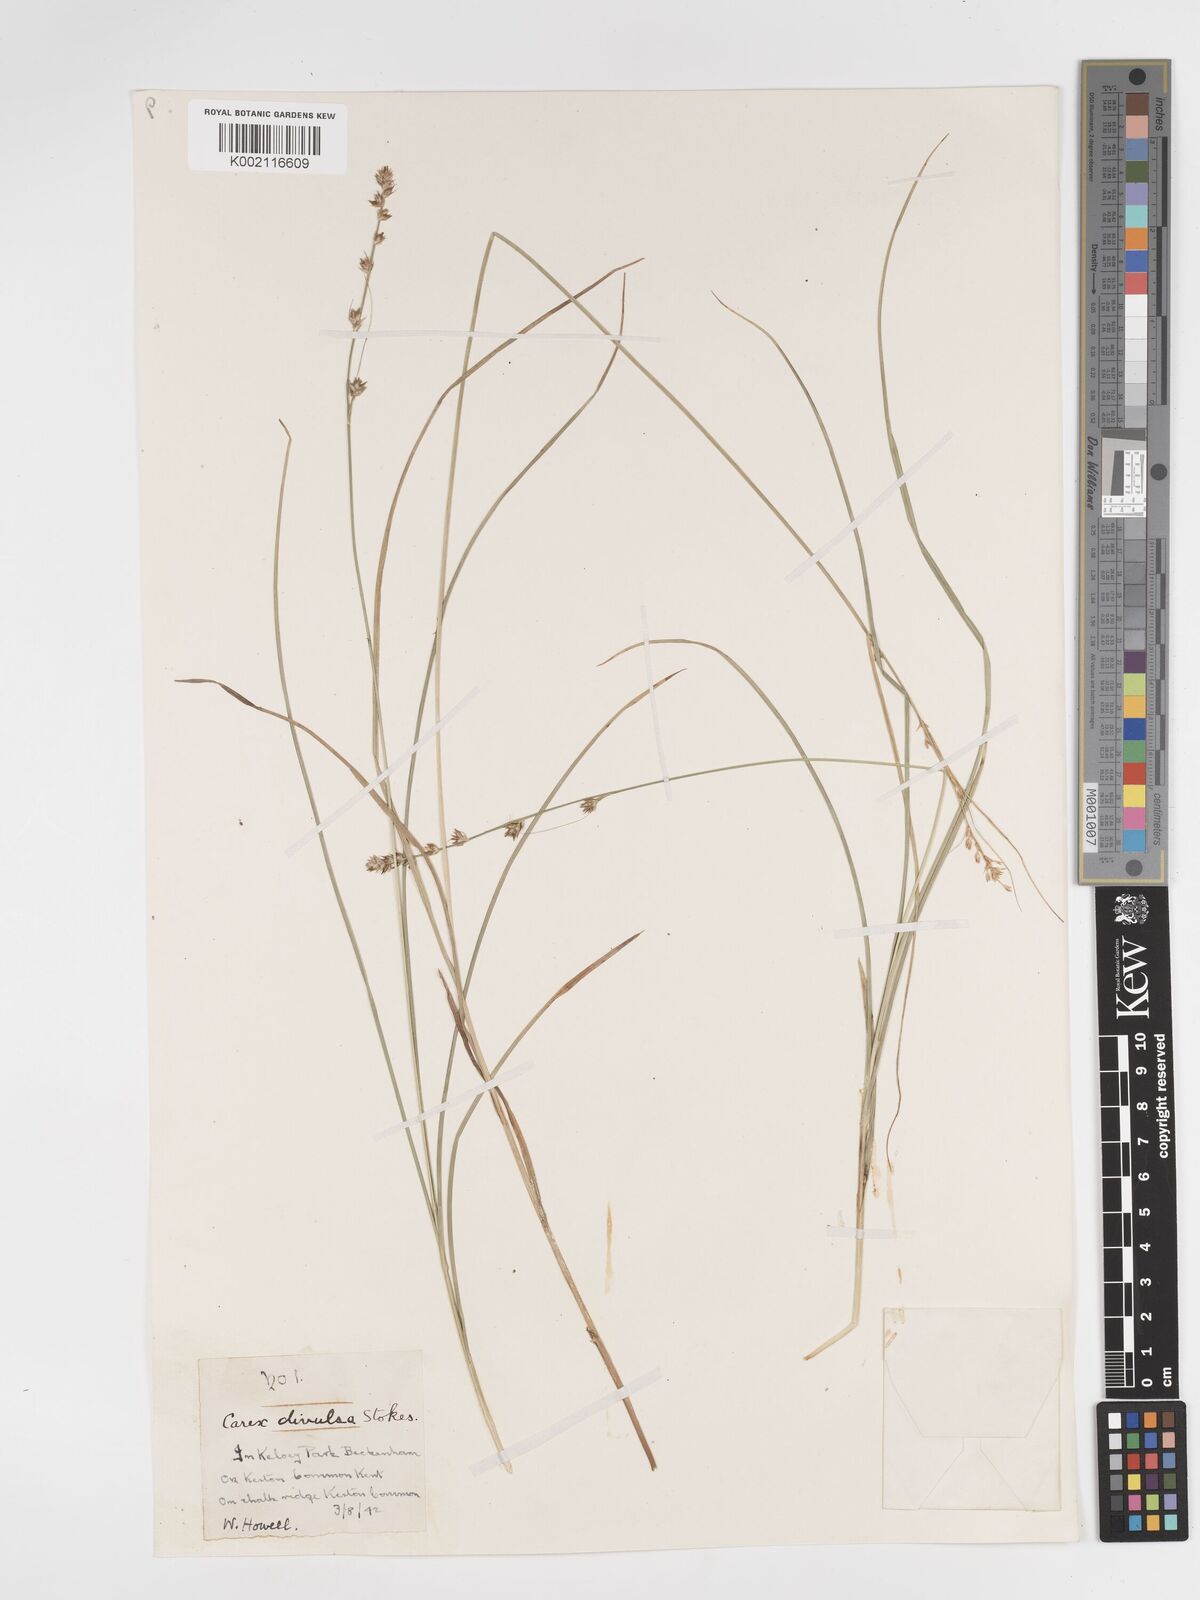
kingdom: Plantae
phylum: Tracheophyta
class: Liliopsida
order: Poales
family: Cyperaceae
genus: Carex
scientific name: Carex divulsa
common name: Grassland sedge
